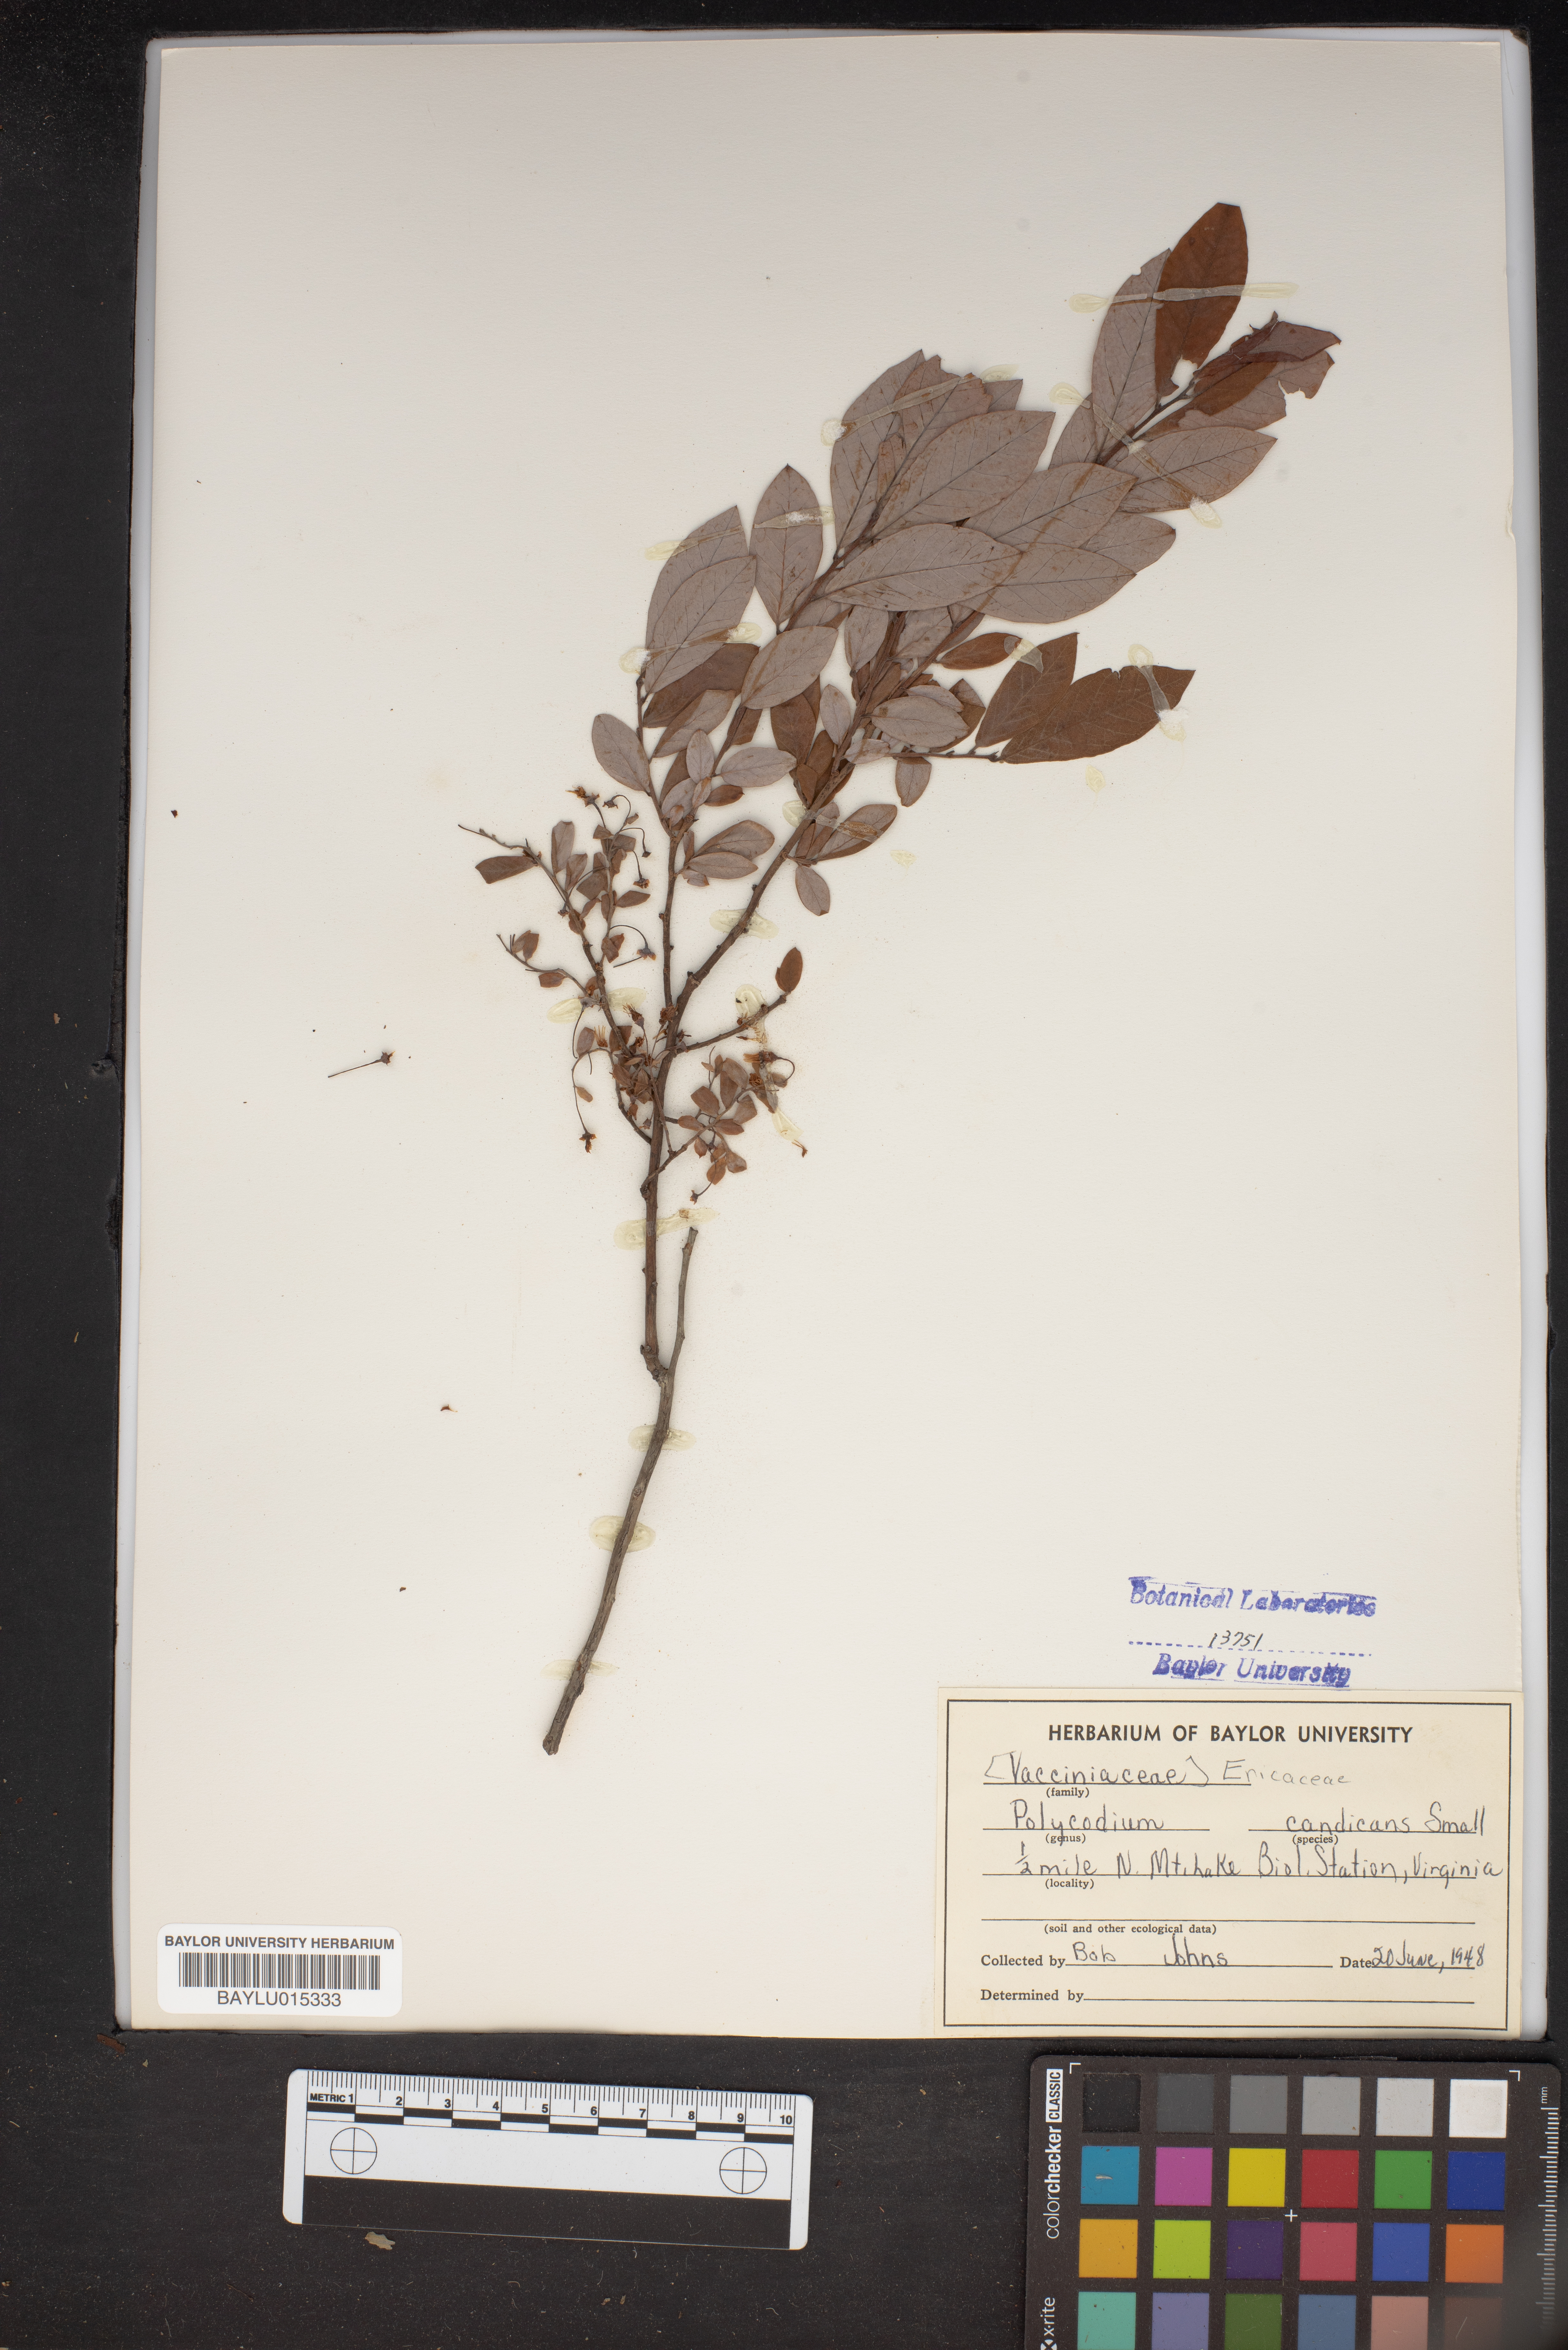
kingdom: Plantae
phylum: Tracheophyta
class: Magnoliopsida
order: Ericales
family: Ericaceae
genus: Vaccinium
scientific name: Vaccinium stamineum
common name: Deerberry
